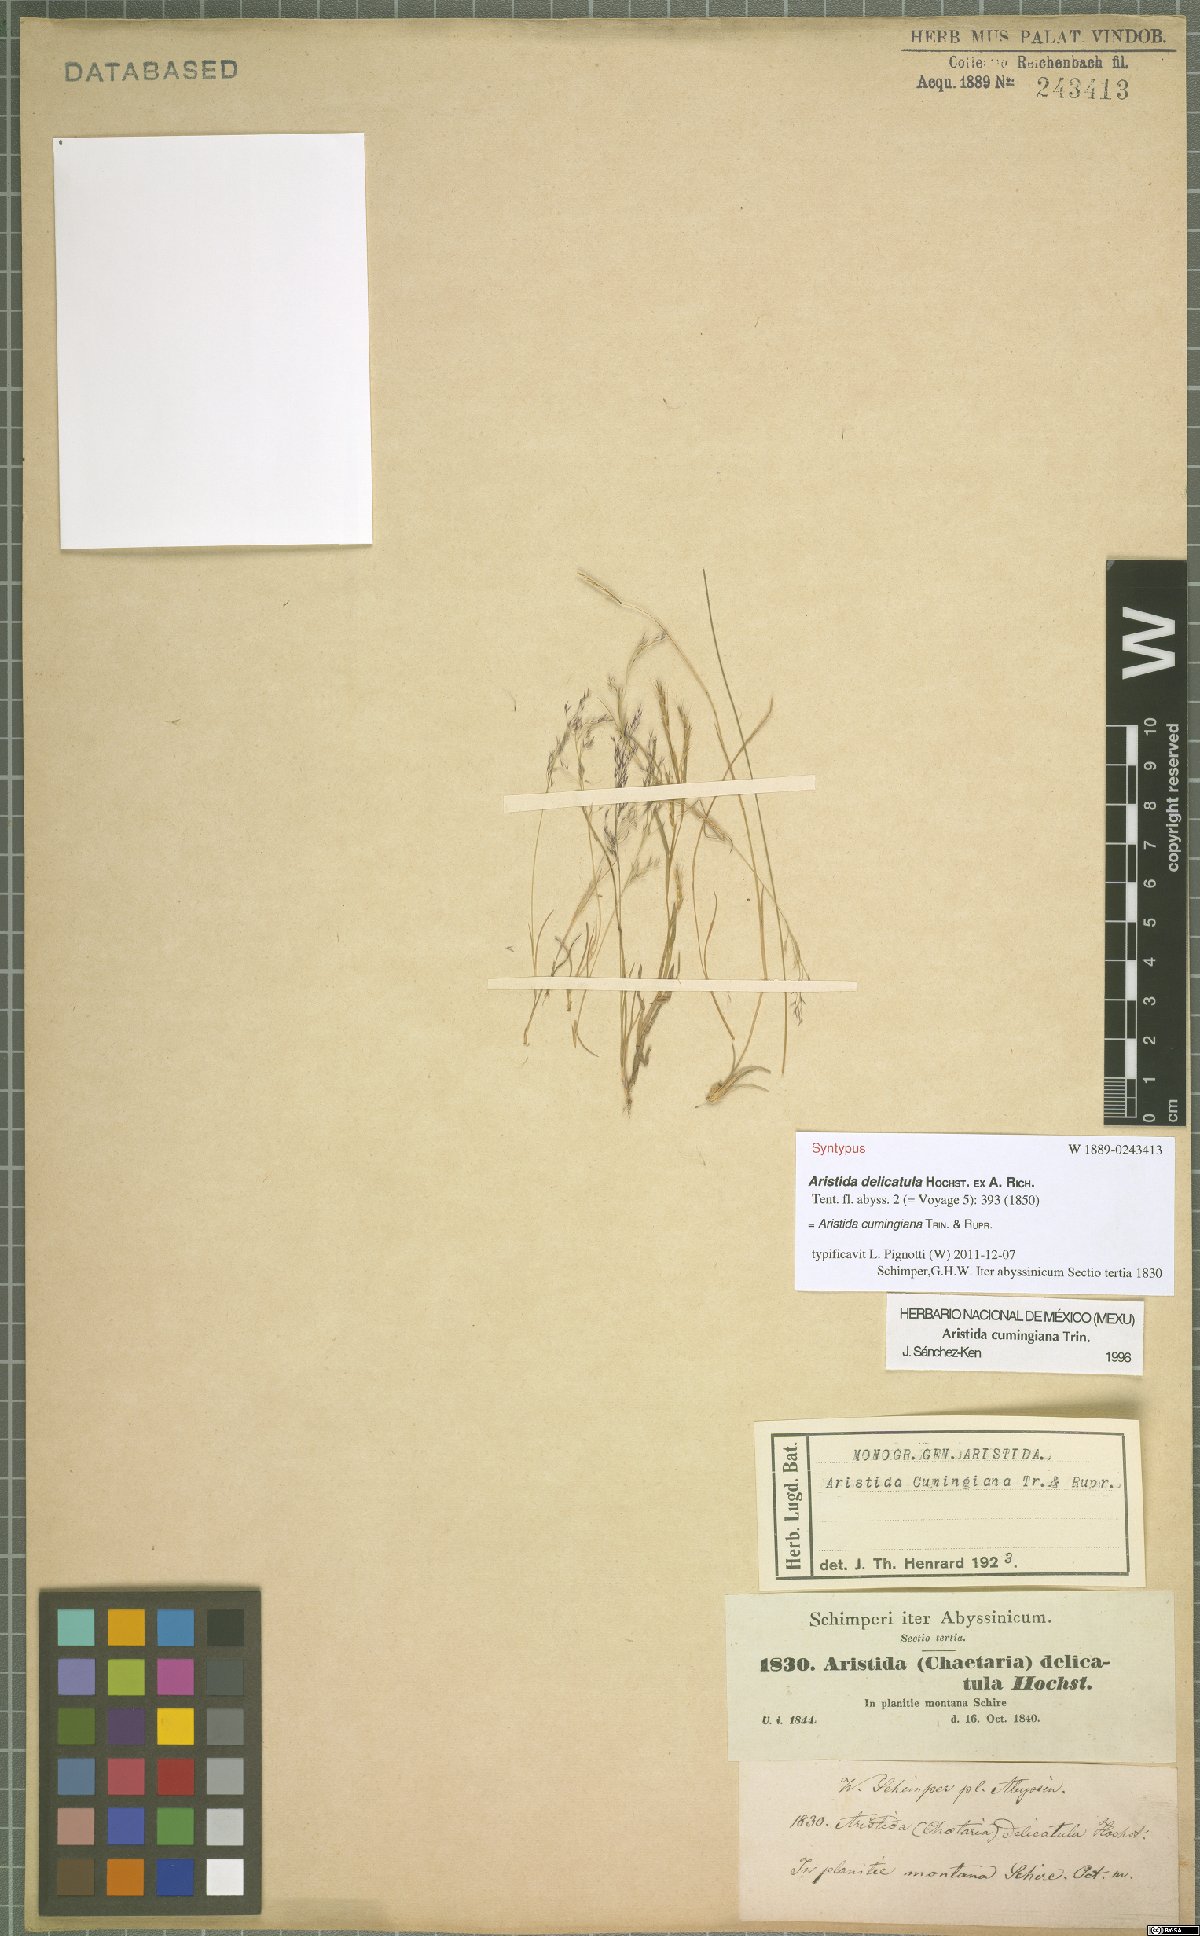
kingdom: Plantae
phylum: Tracheophyta
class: Liliopsida
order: Poales
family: Poaceae
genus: Aristida
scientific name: Aristida cumingiana
